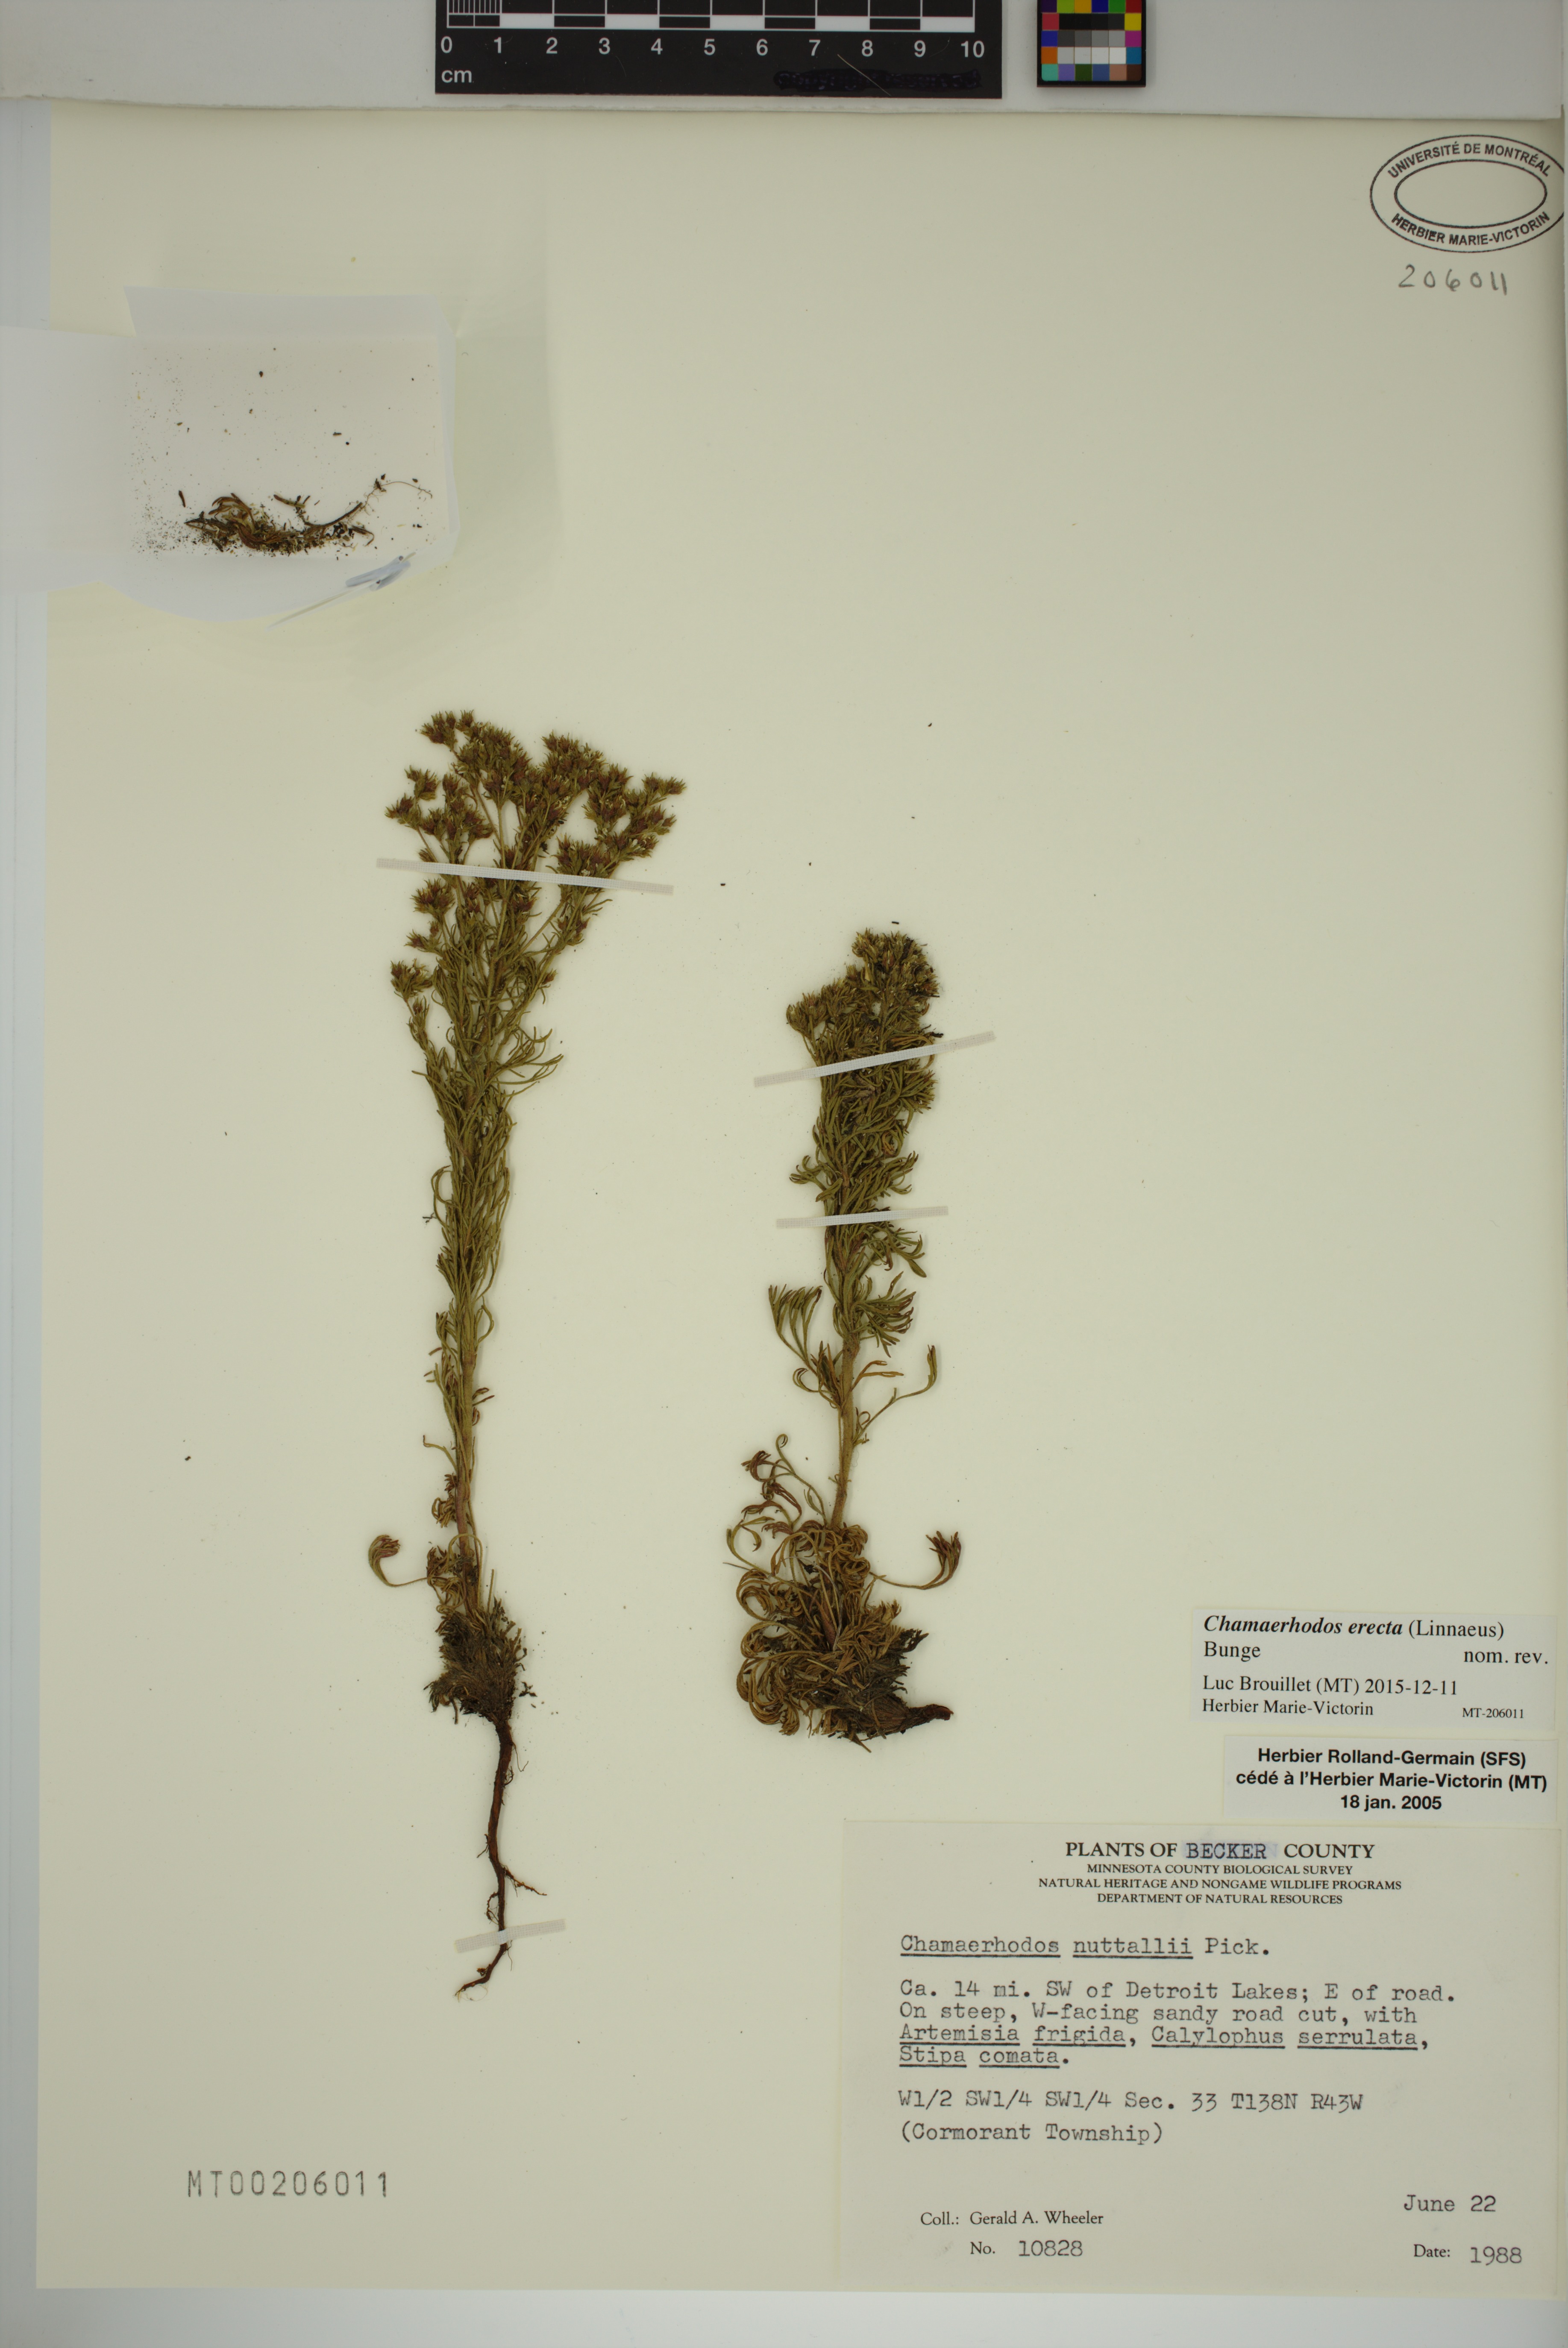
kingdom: Plantae
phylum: Tracheophyta
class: Magnoliopsida
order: Rosales
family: Rosaceae
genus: Chamaerhodos
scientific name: Chamaerhodos erecta
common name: American chamaerhodos
